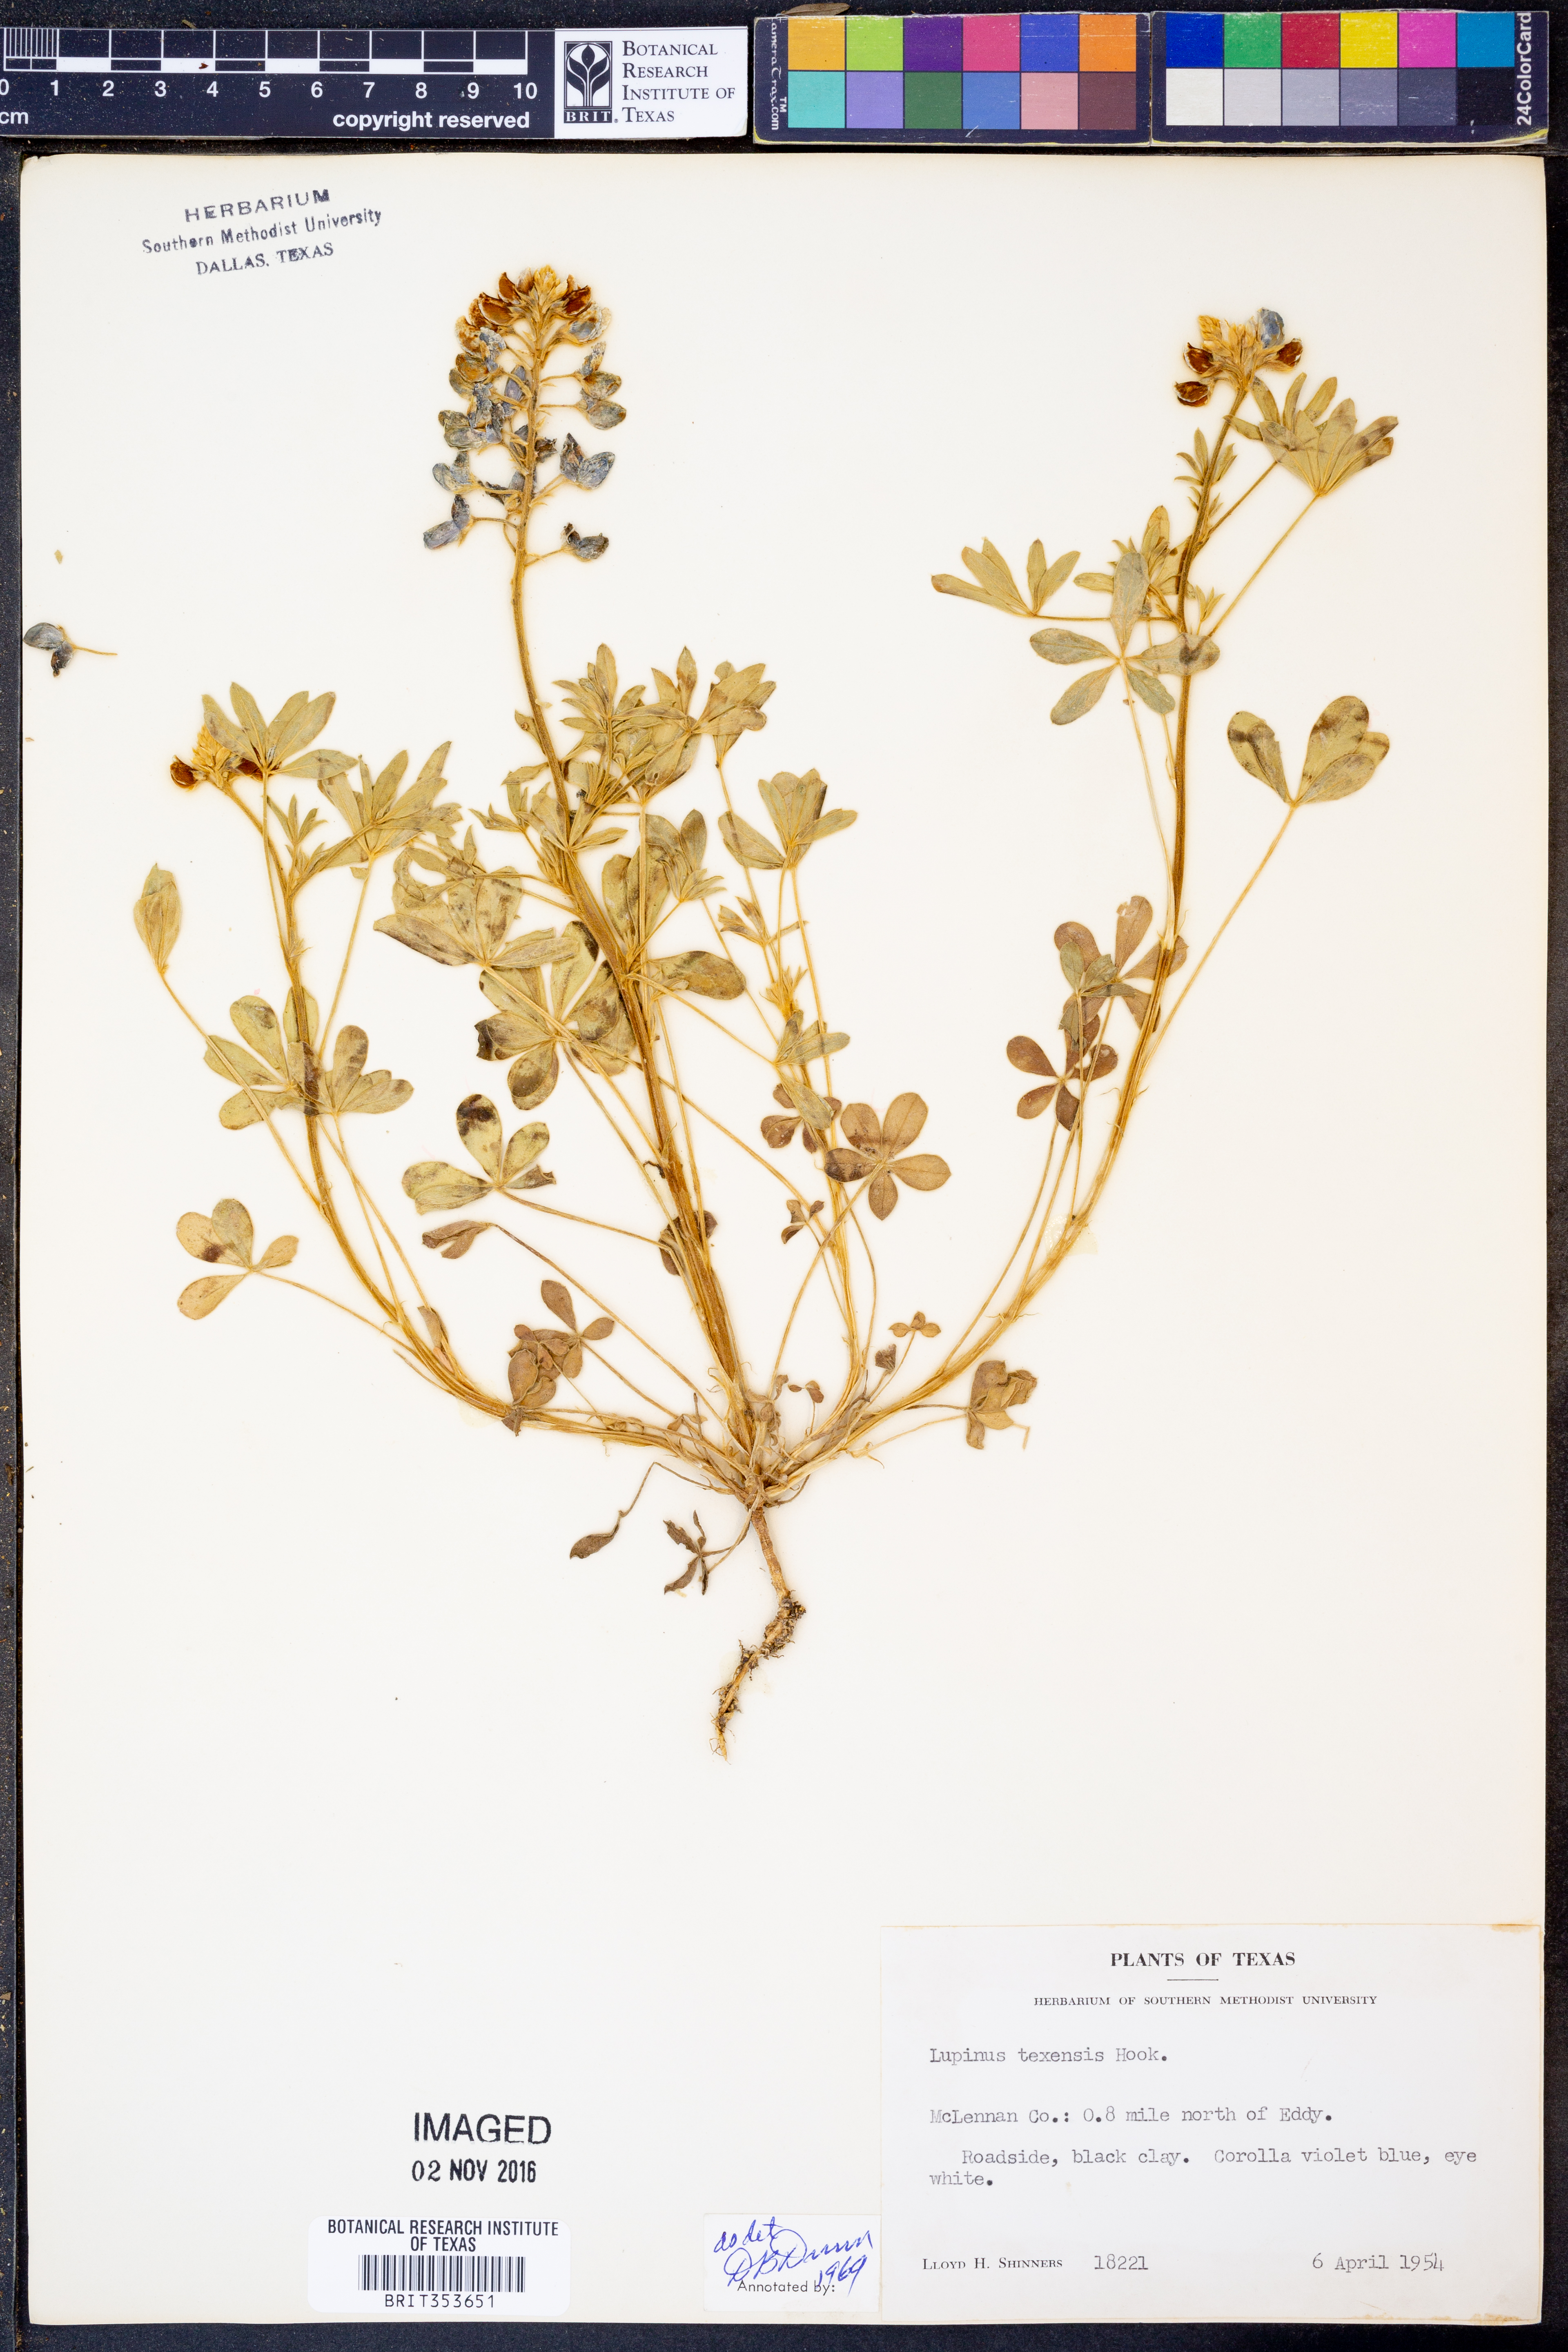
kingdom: Plantae
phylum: Tracheophyta
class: Magnoliopsida
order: Fabales
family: Fabaceae
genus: Lupinus
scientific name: Lupinus texensis
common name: Texas bluebonnet
